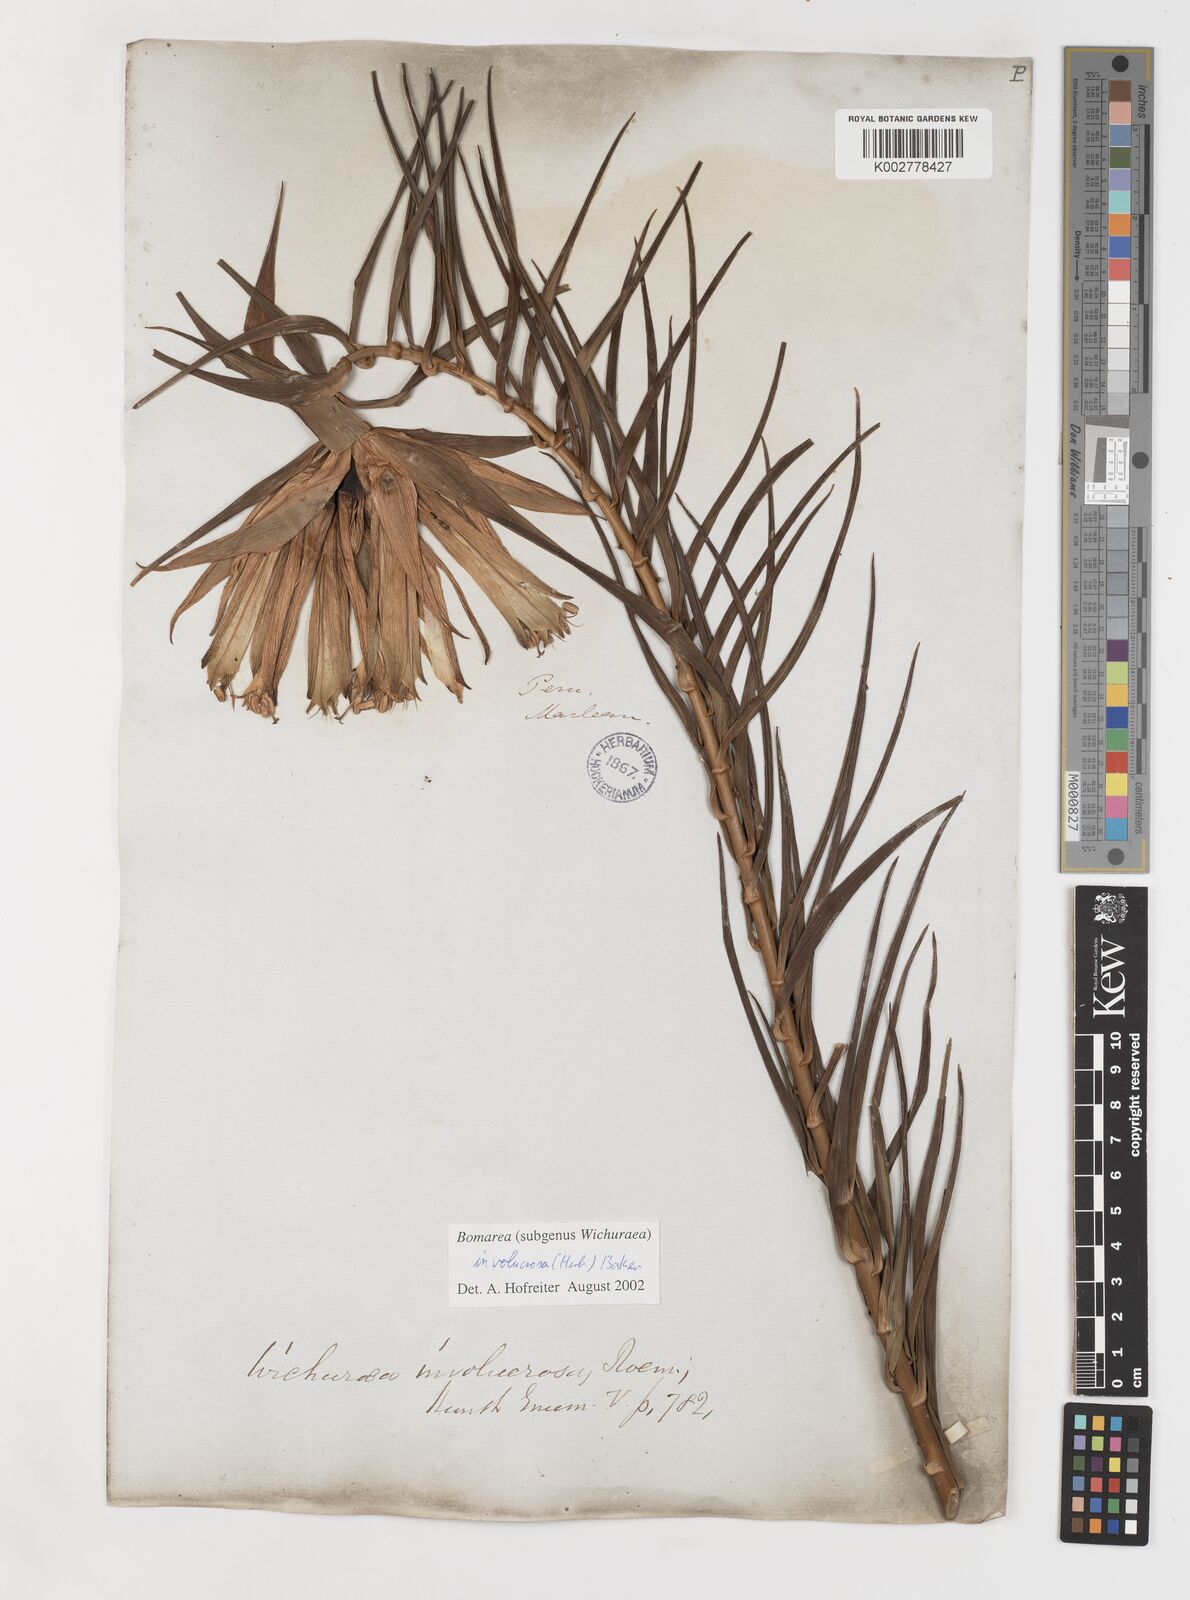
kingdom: Plantae
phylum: Tracheophyta
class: Liliopsida
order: Liliales
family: Alstroemeriaceae
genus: Bomarea
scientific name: Bomarea involucrosa
